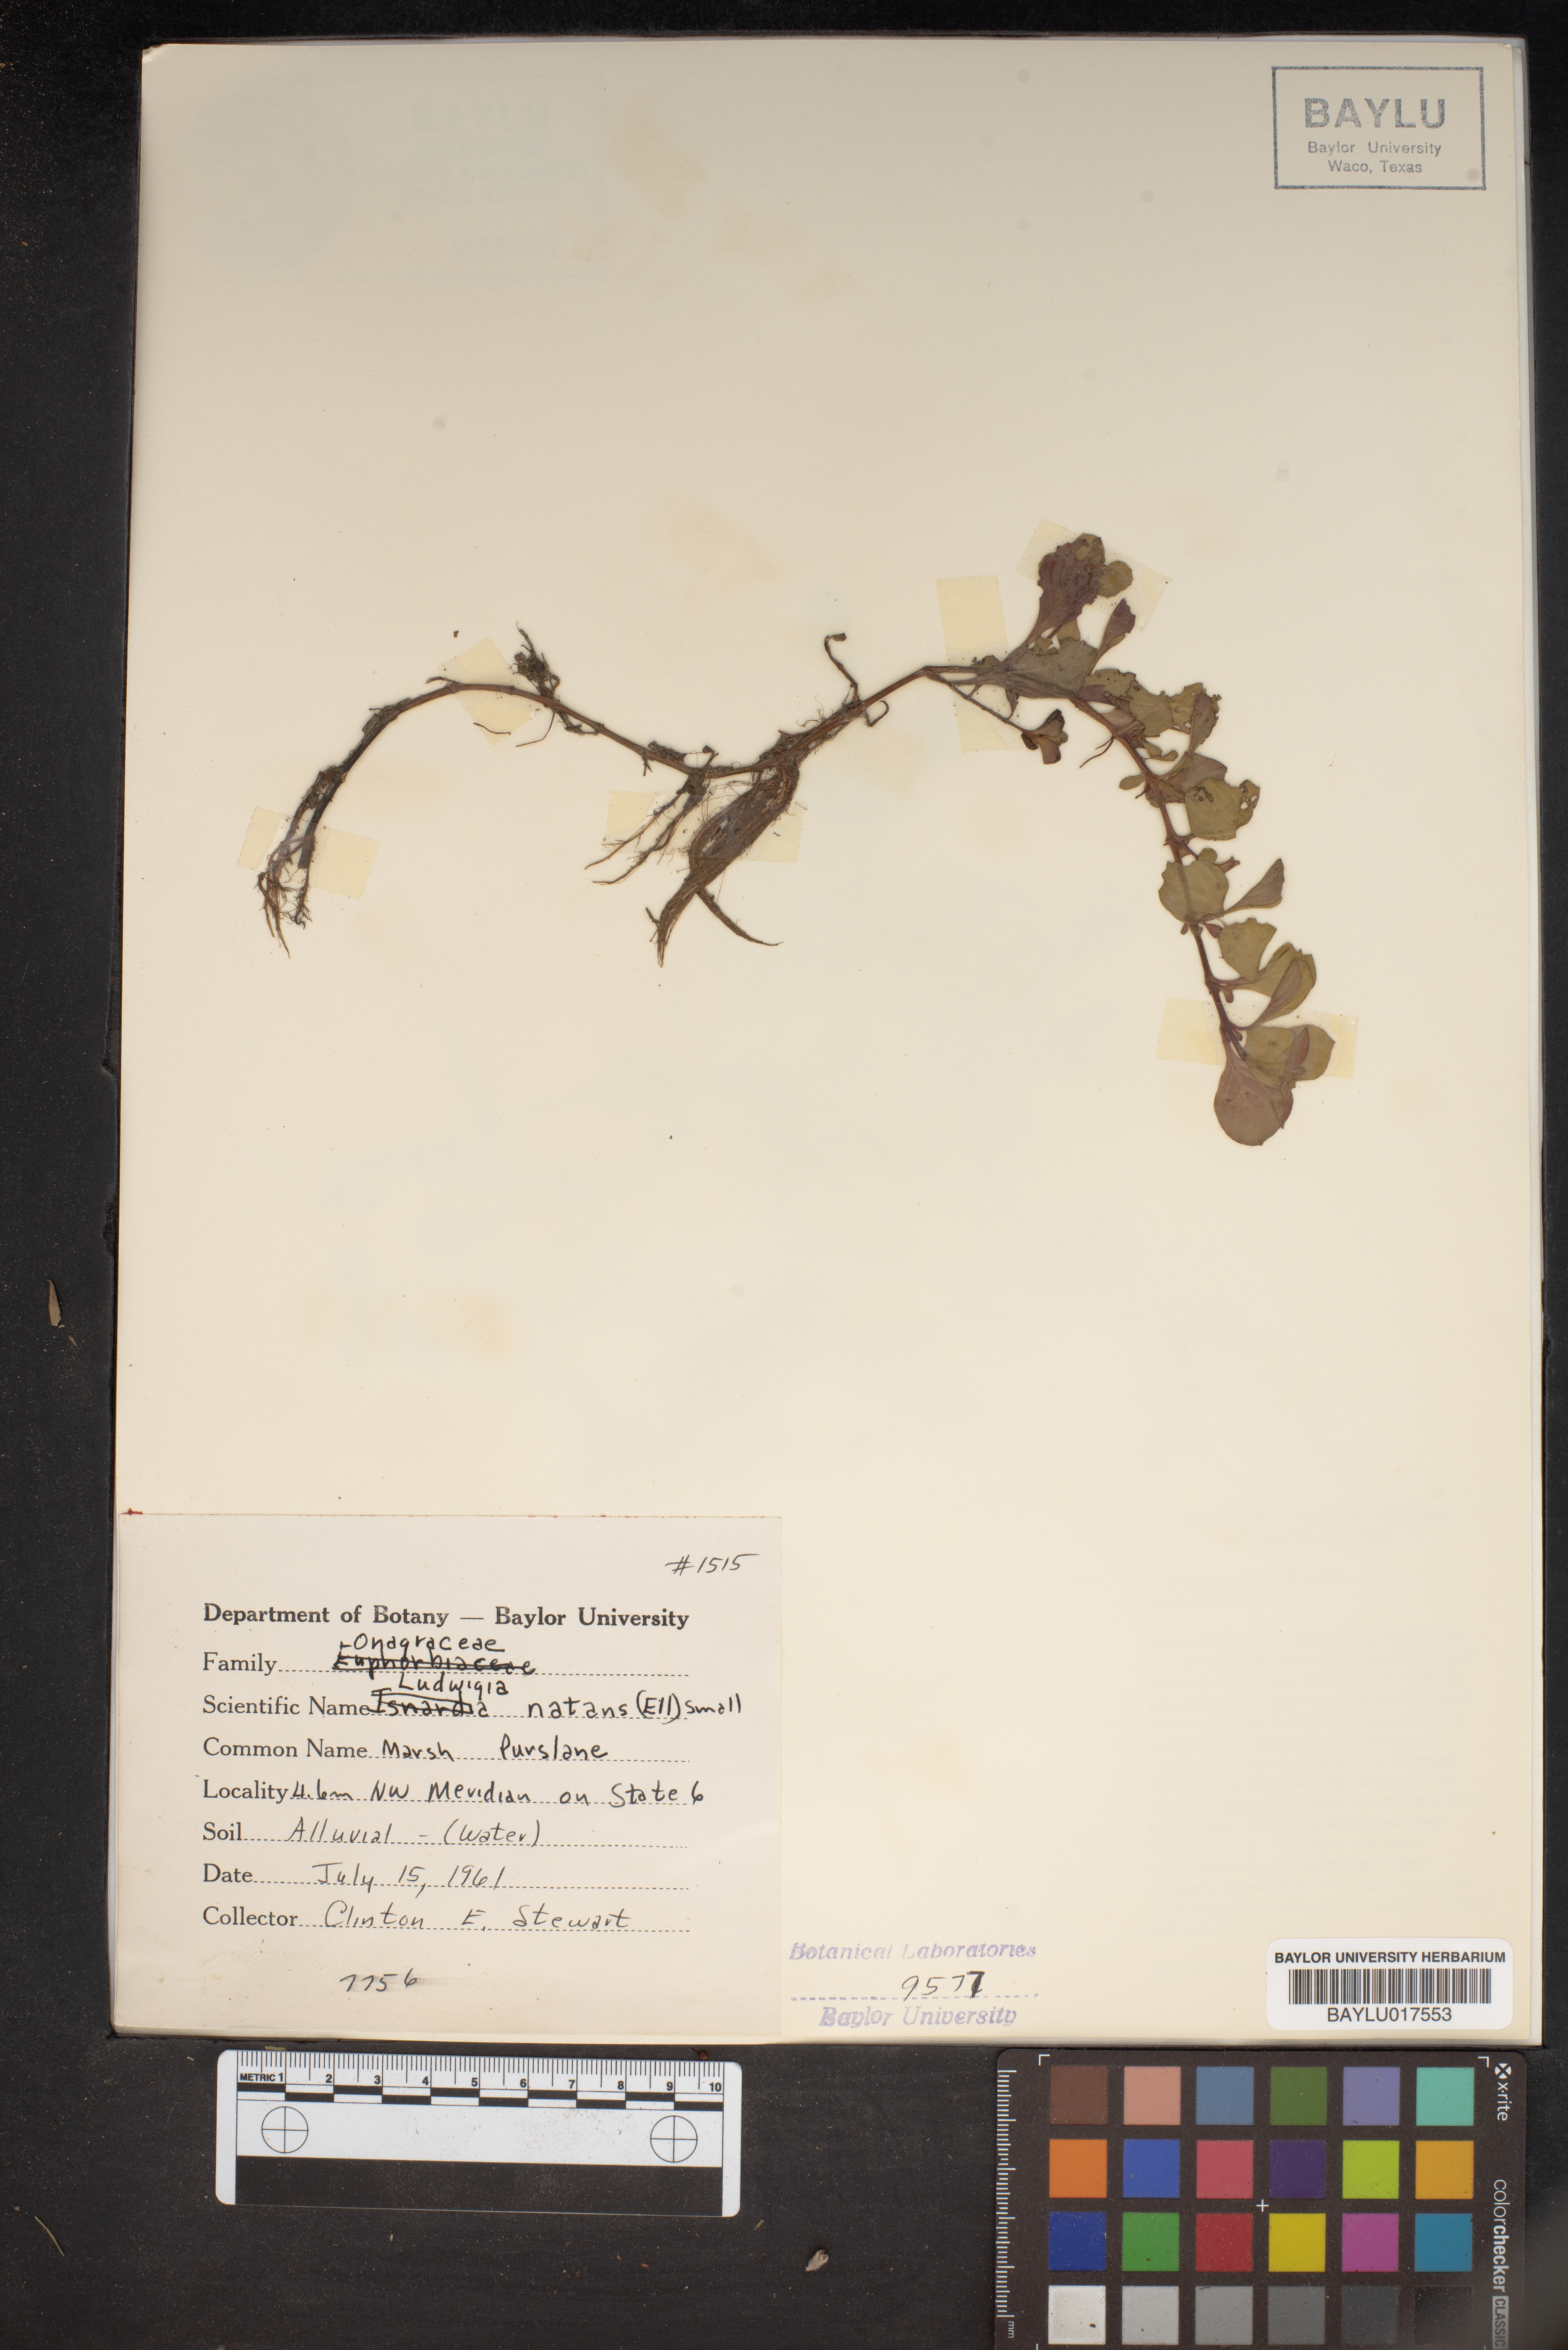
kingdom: Plantae
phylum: Tracheophyta
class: Magnoliopsida
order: Myrtales
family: Onagraceae
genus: Ludwigia
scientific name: Ludwigia repens
